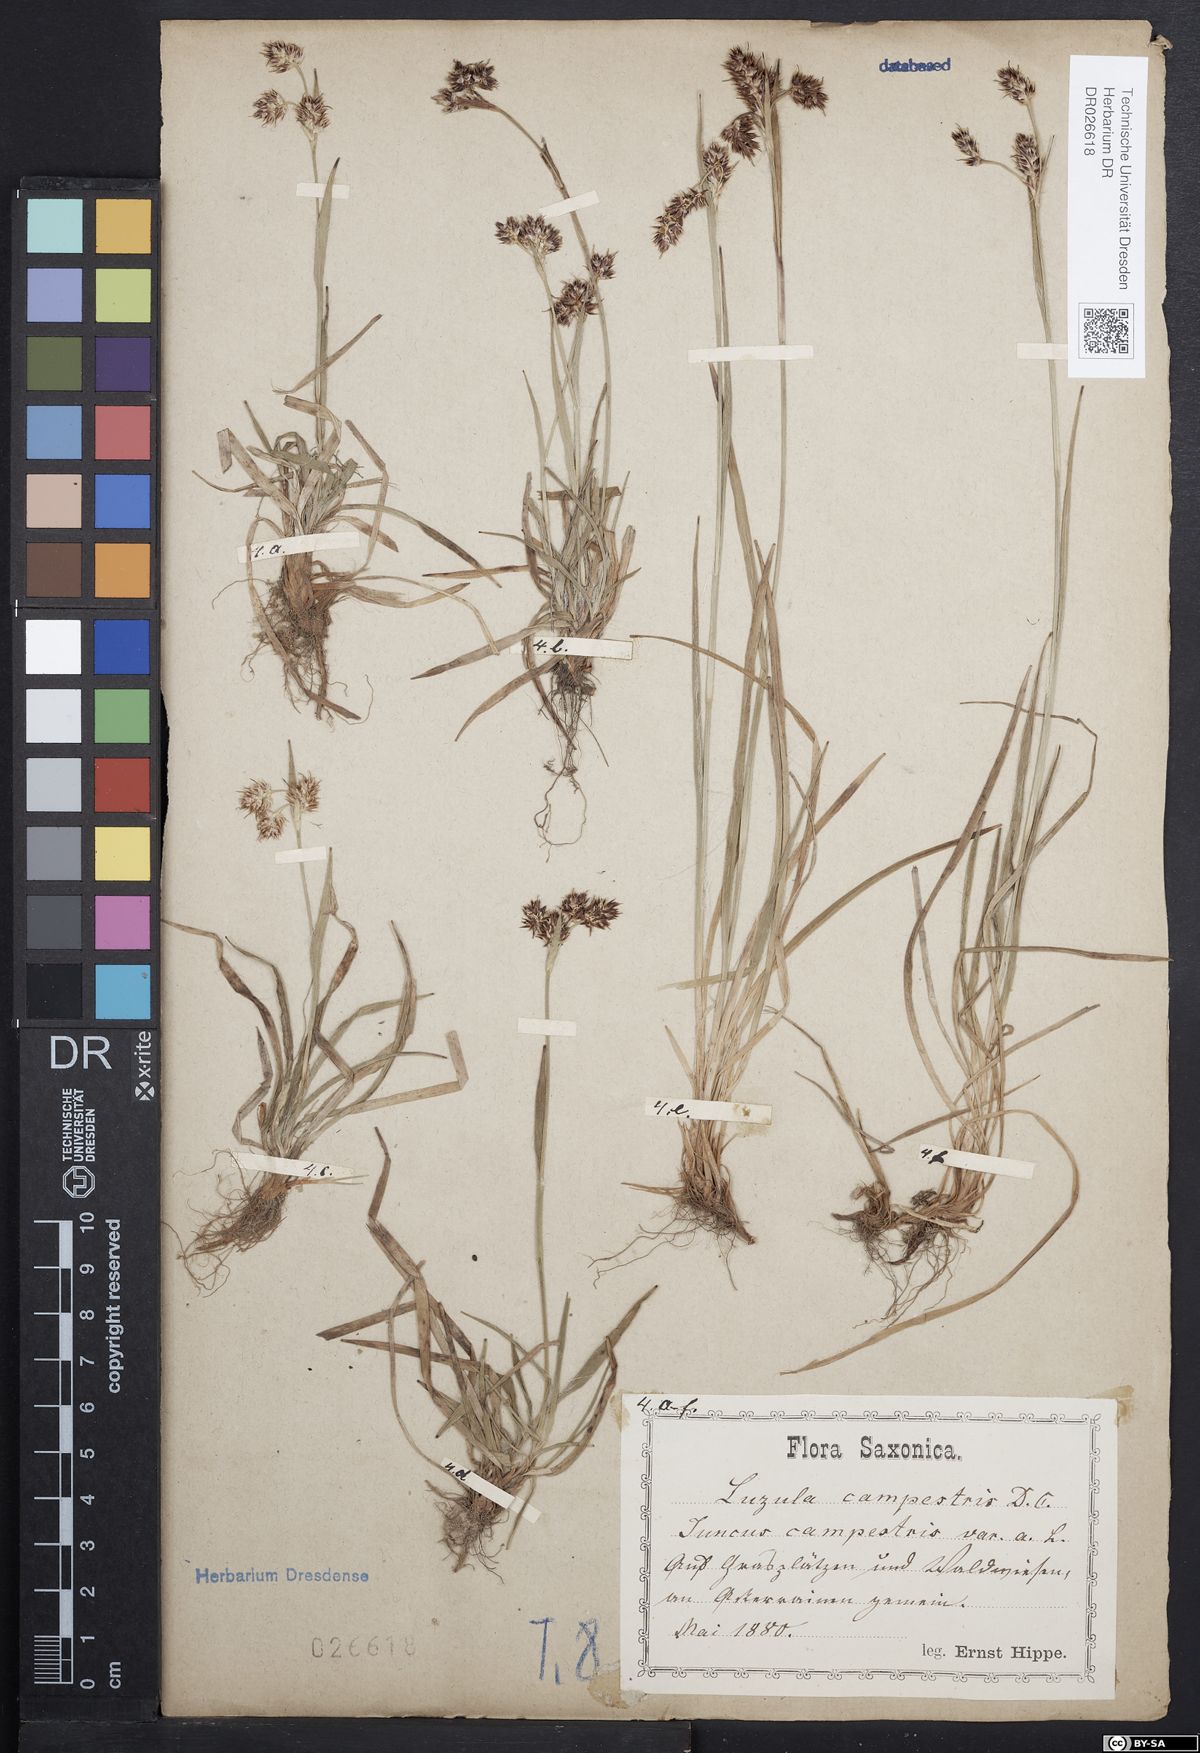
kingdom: Plantae
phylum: Tracheophyta
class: Liliopsida
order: Poales
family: Juncaceae
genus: Luzula
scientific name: Luzula campestris
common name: Field wood-rush
